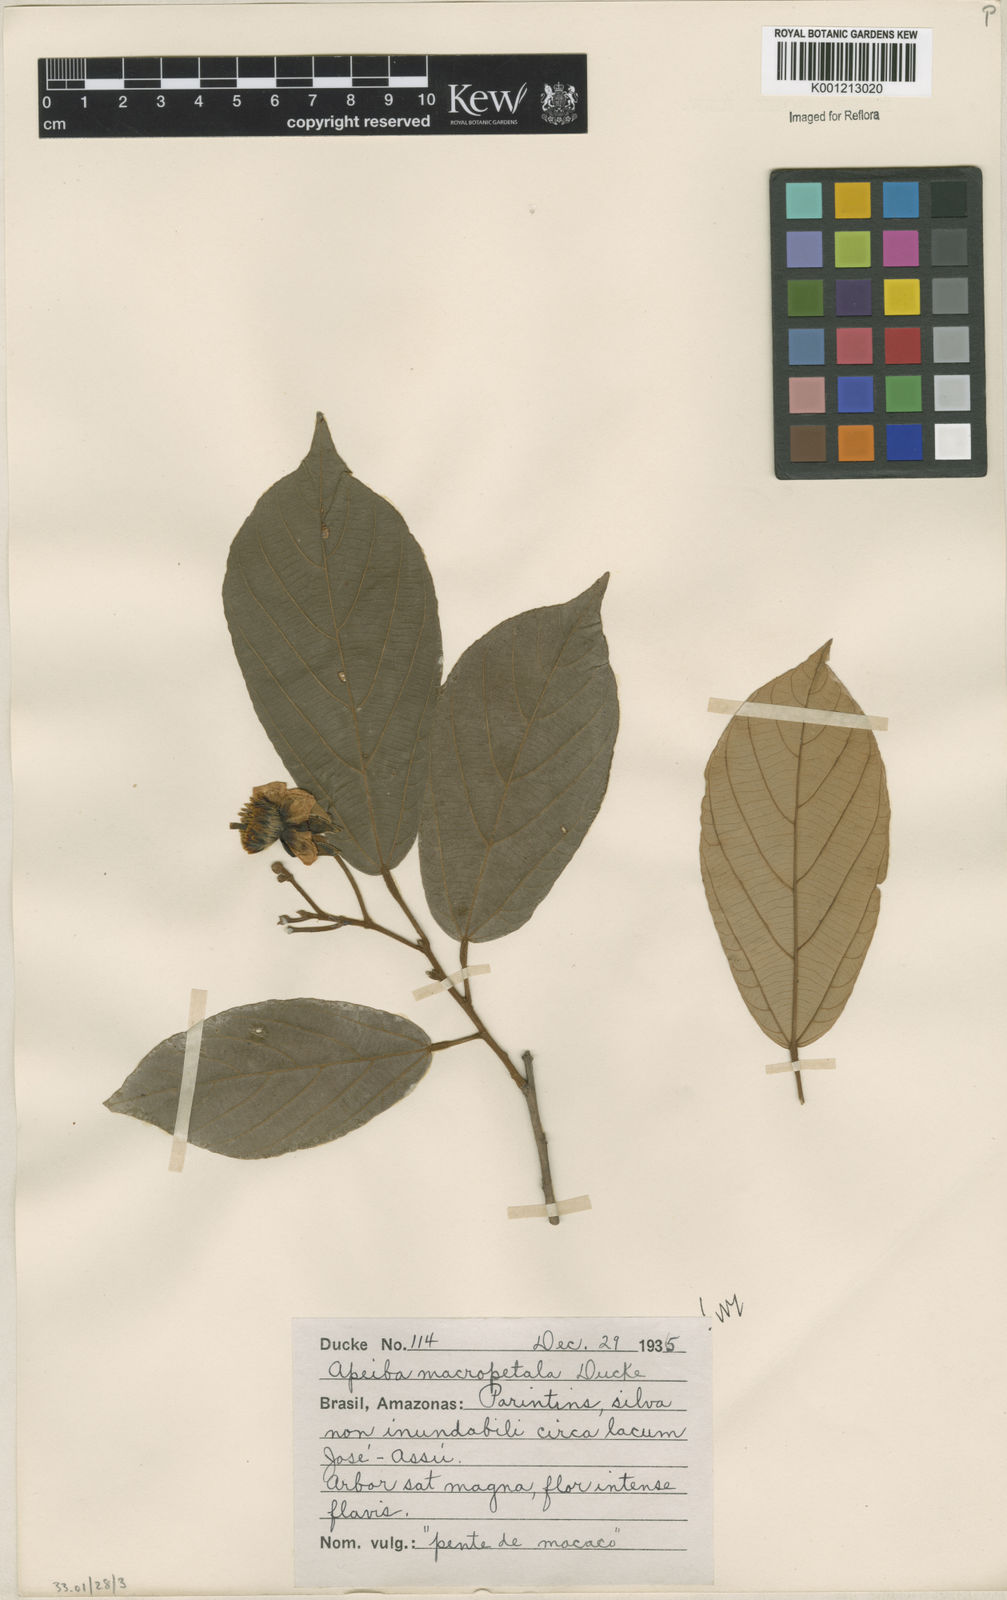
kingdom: Plantae
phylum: Tracheophyta
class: Magnoliopsida
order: Malvales
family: Malvaceae
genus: Apeiba
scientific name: Apeiba
